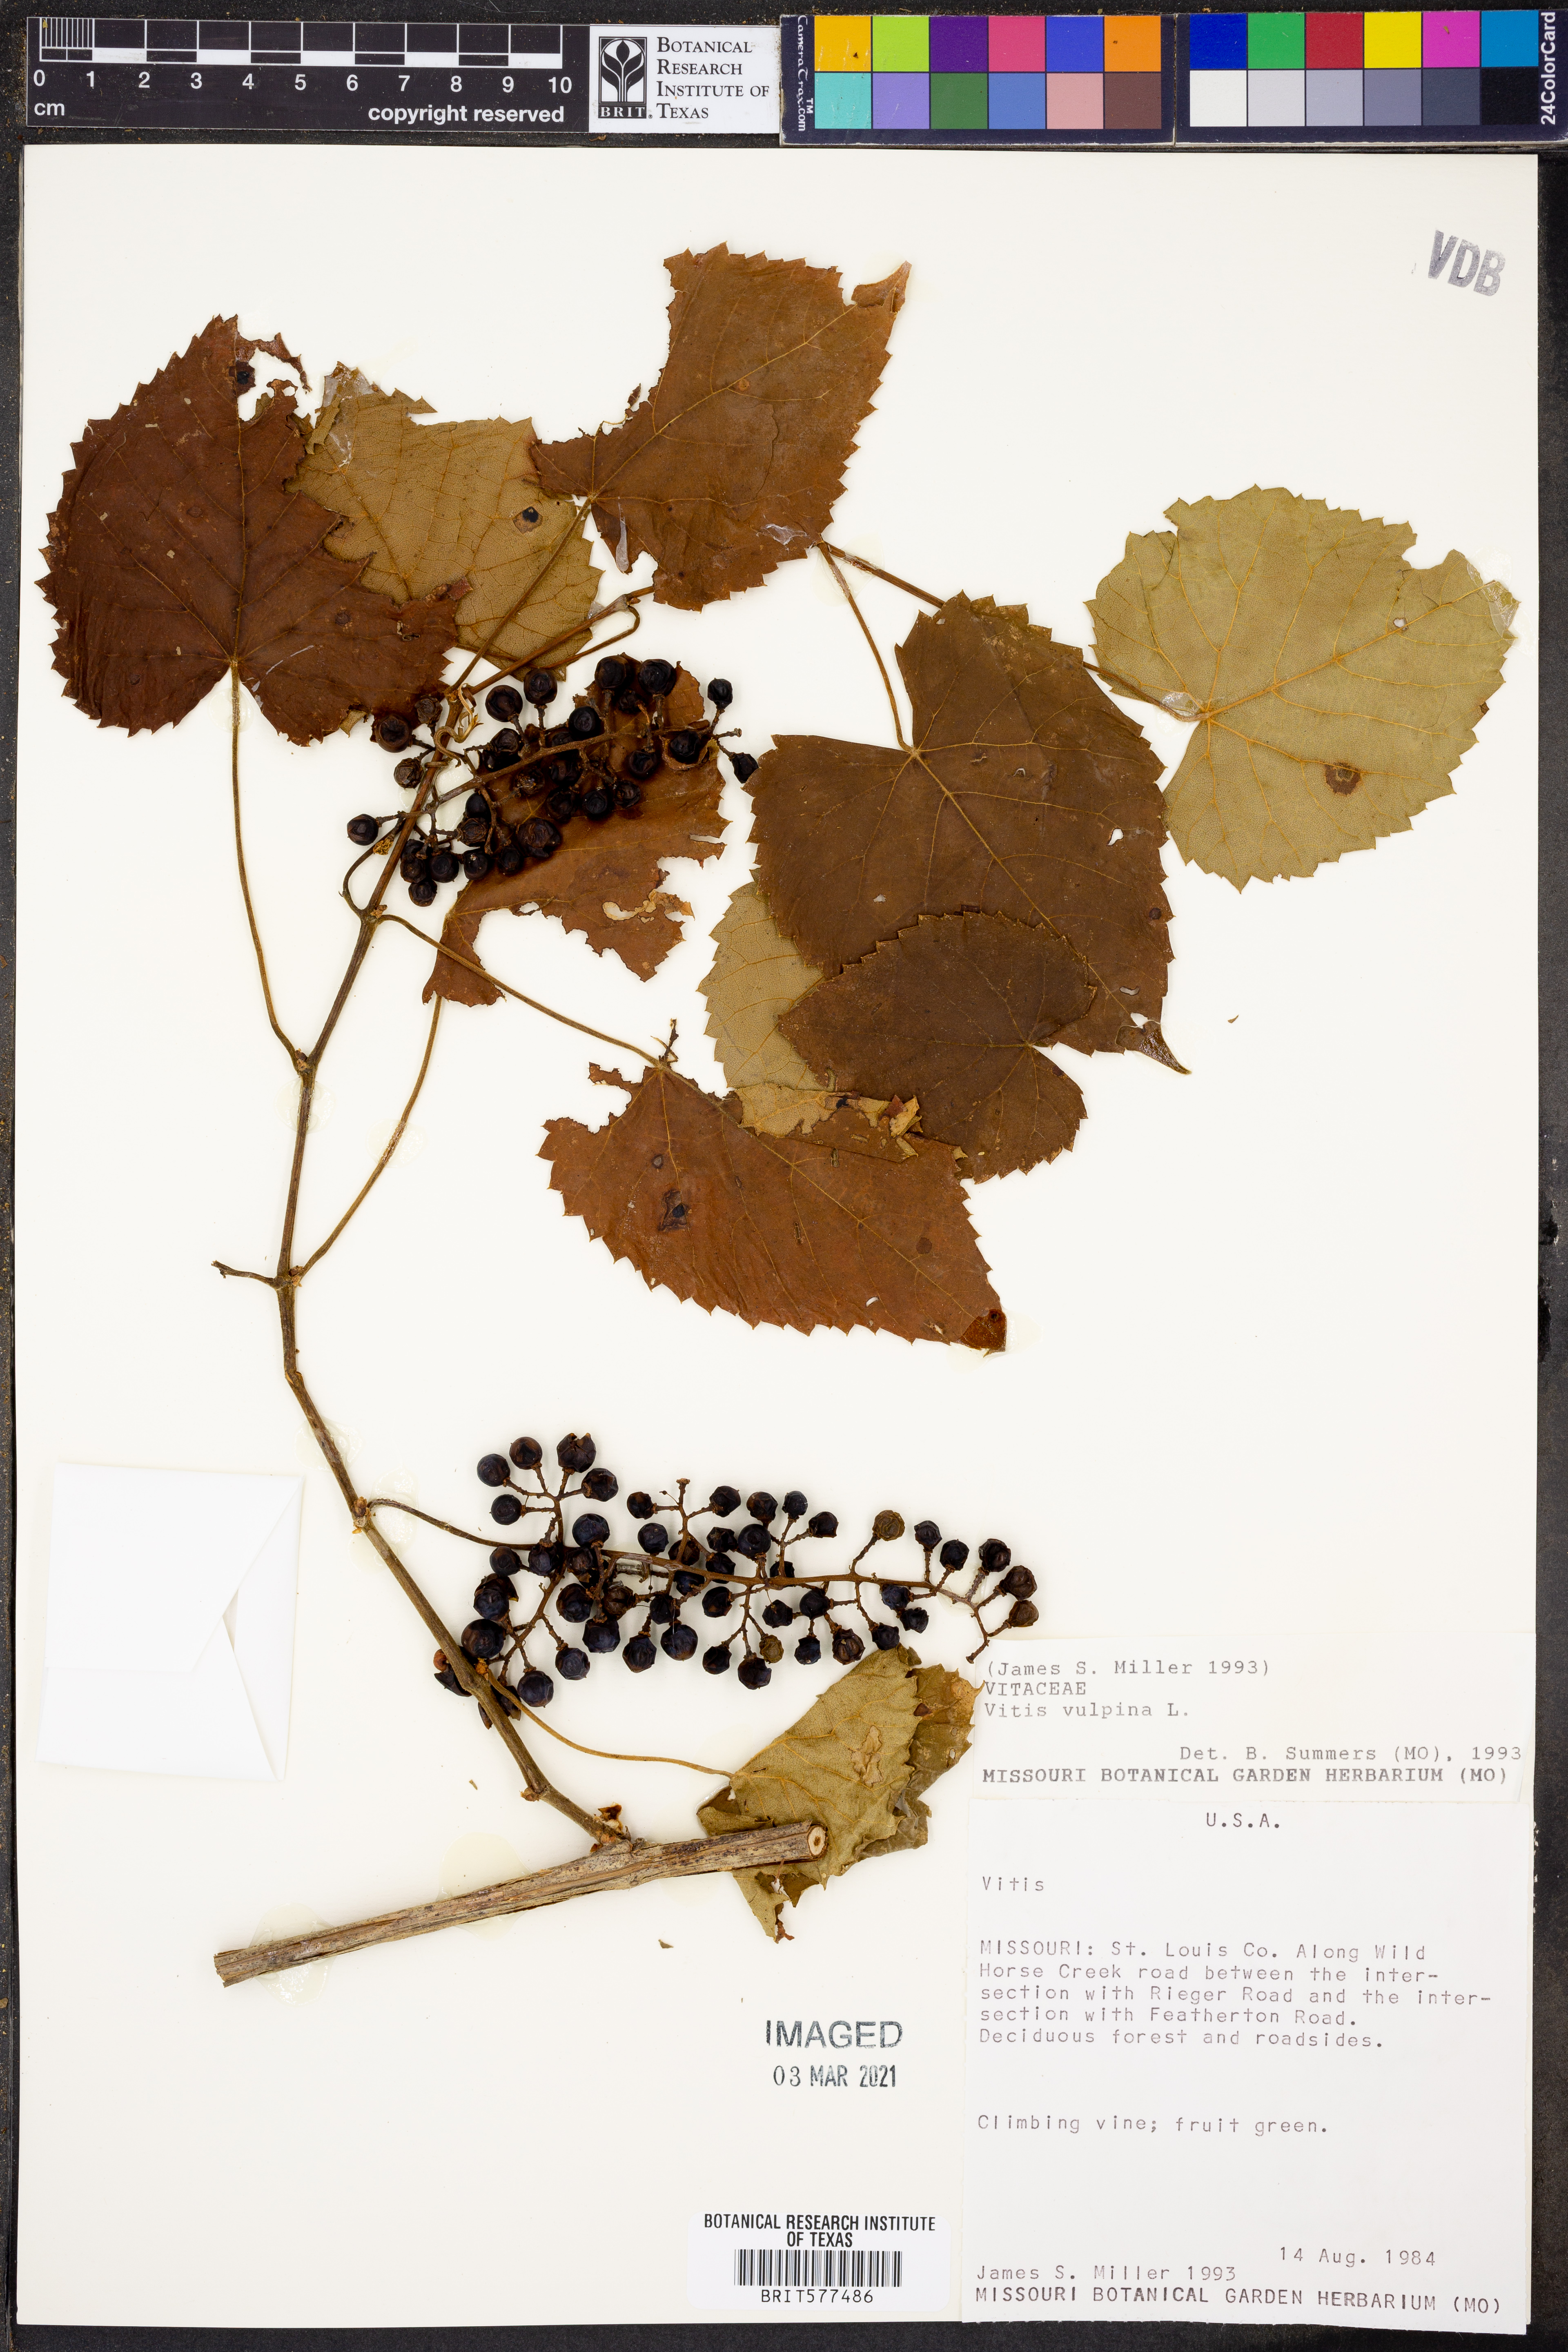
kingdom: Plantae
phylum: Tracheophyta
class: Magnoliopsida
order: Vitales
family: Vitaceae
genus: Vitis
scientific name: Vitis vulpina
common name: Frost grape
